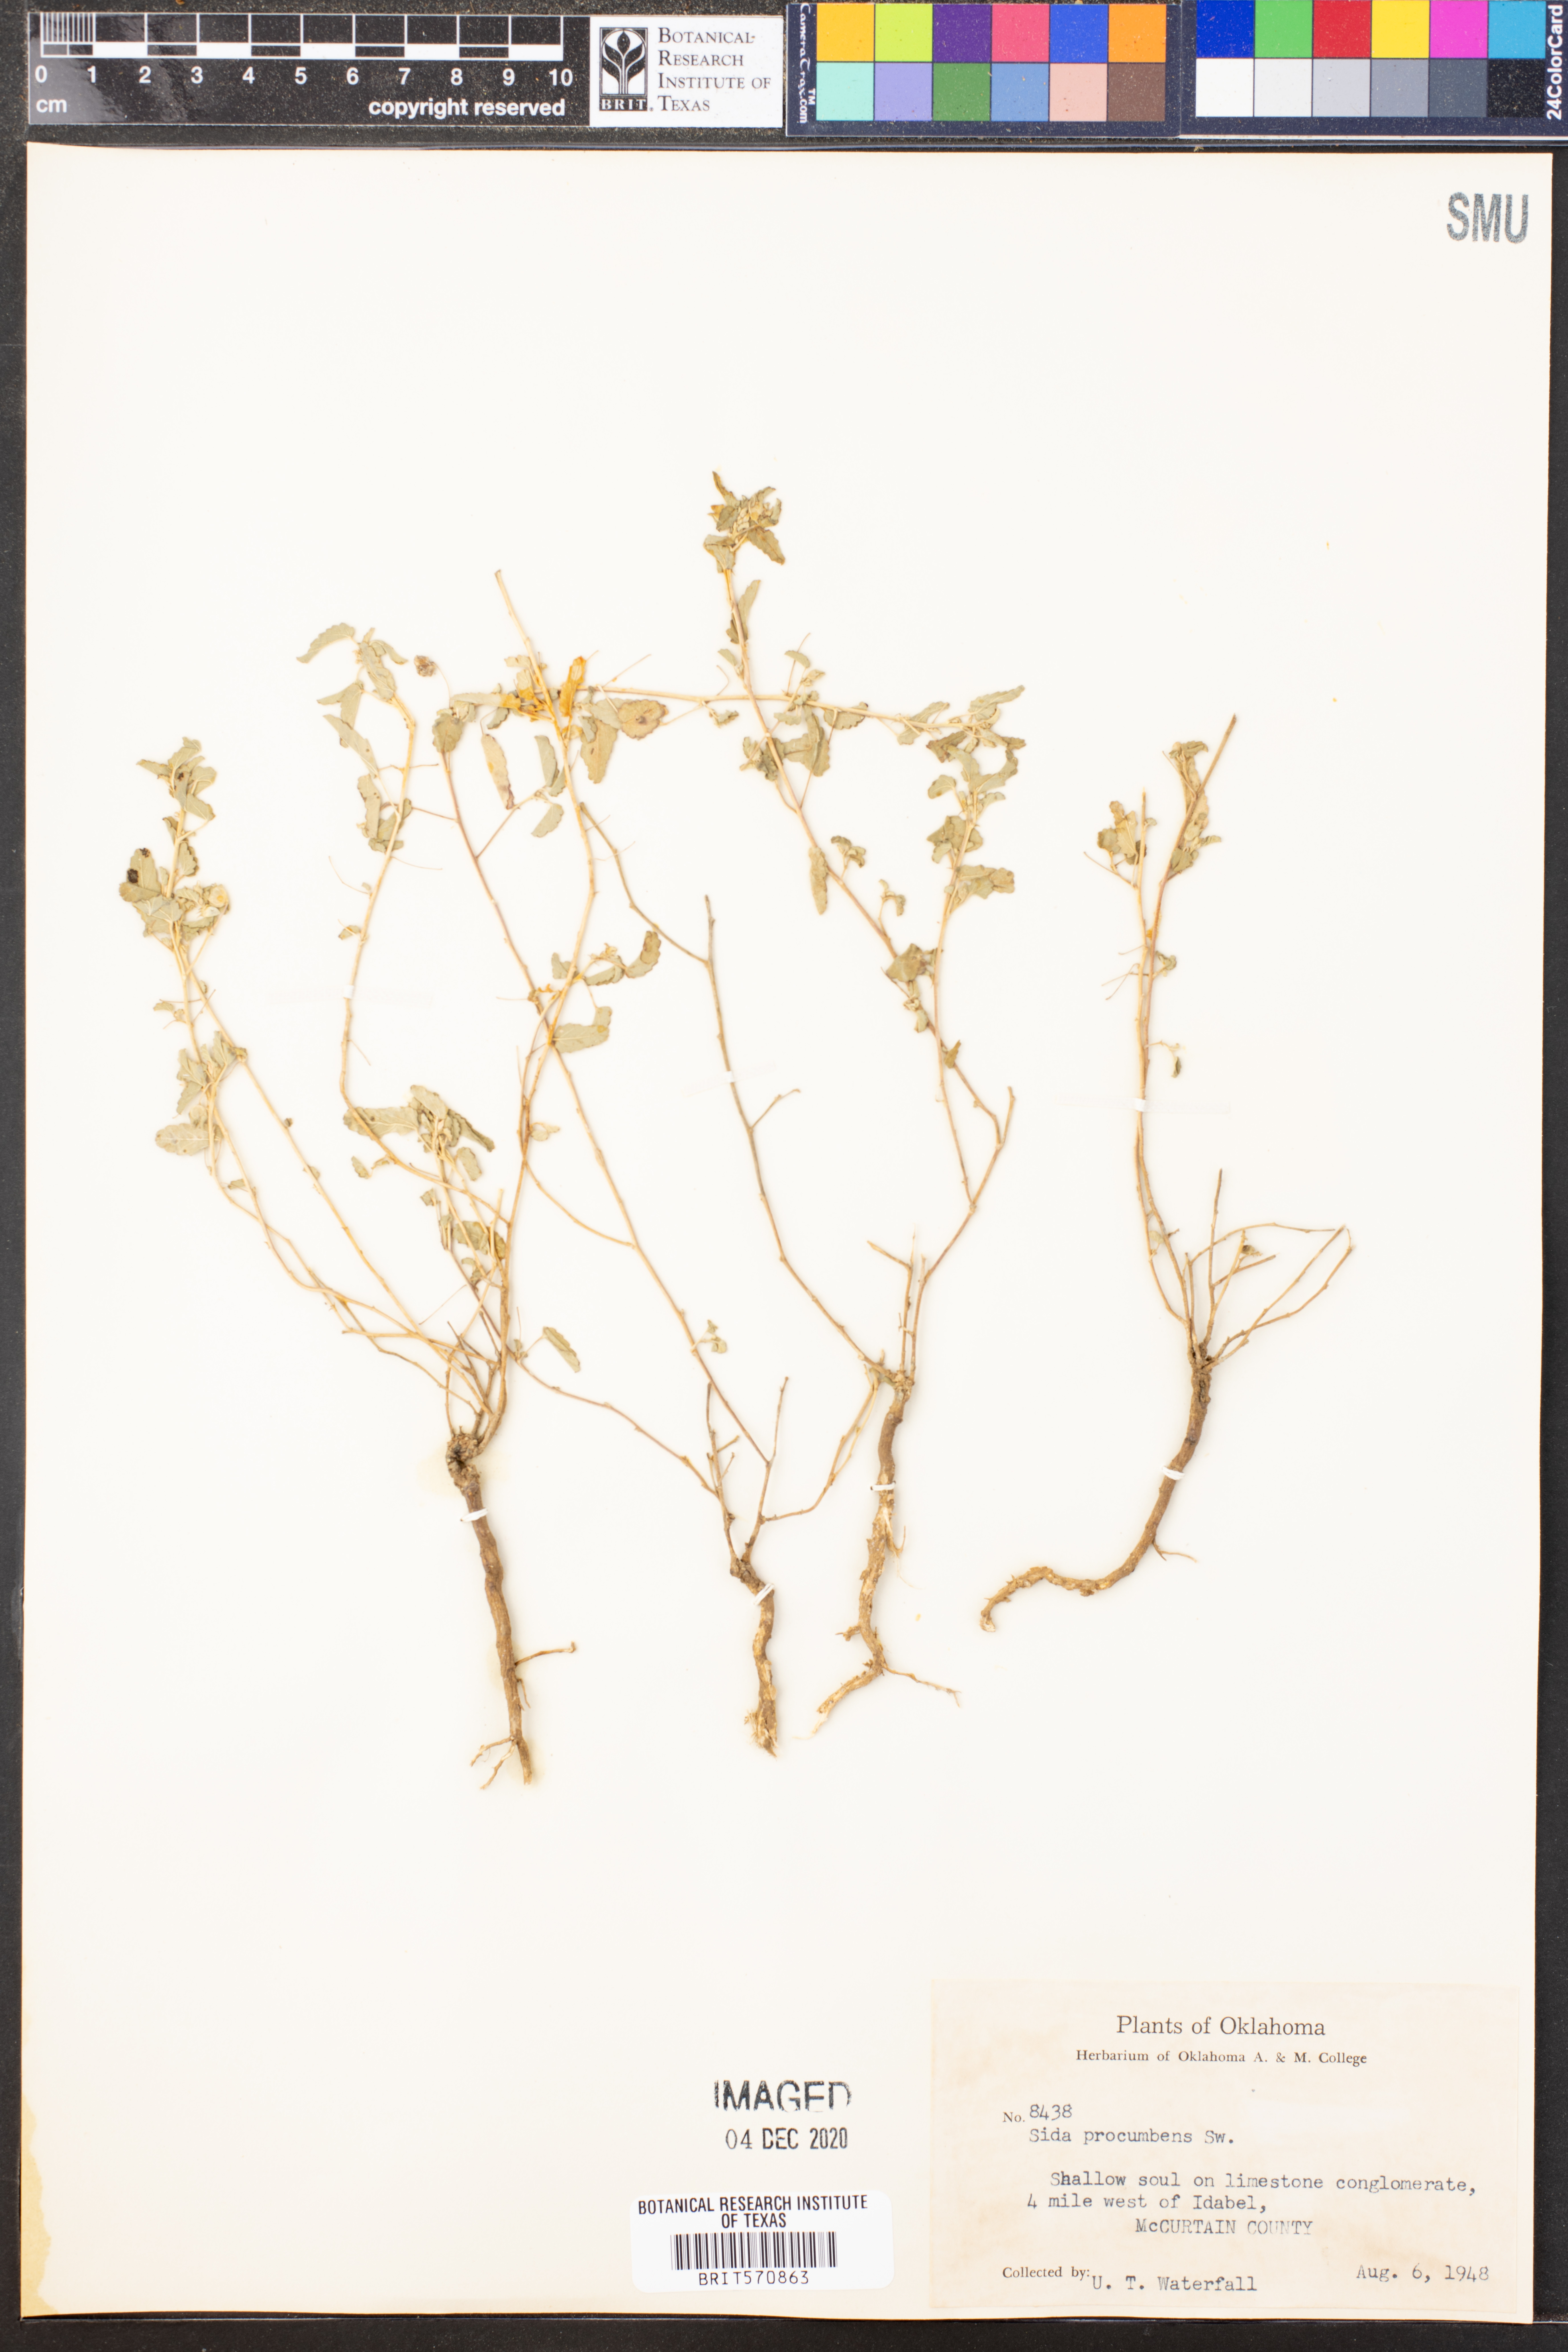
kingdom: Plantae
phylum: Tracheophyta
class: Magnoliopsida
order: Malvales
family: Malvaceae
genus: Sida
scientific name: Sida abutilifolia
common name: Spreading fanpetals
